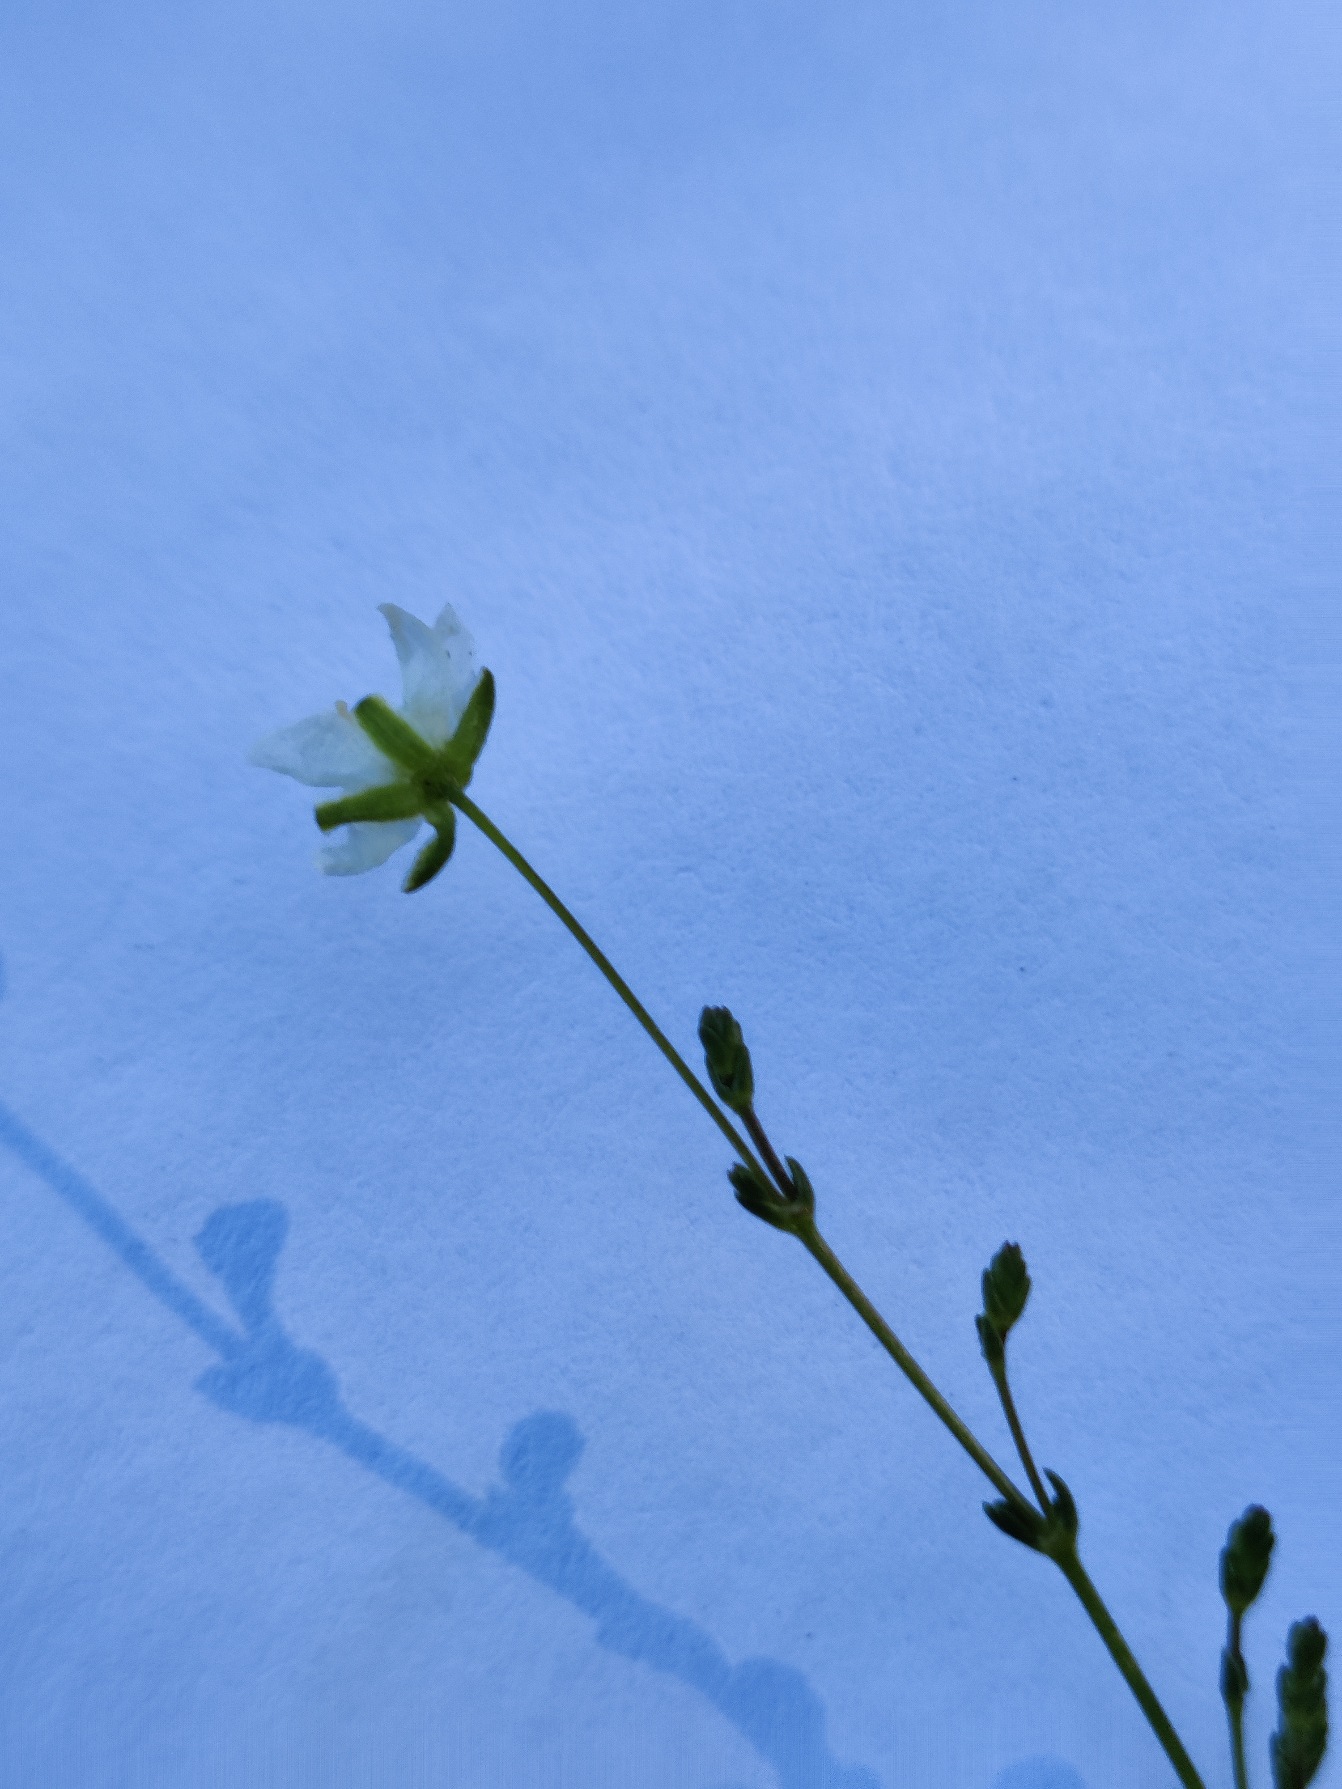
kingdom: Plantae
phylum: Tracheophyta
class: Magnoliopsida
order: Caryophyllales
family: Caryophyllaceae
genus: Sagina
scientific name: Sagina nodosa
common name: Knude-firling
